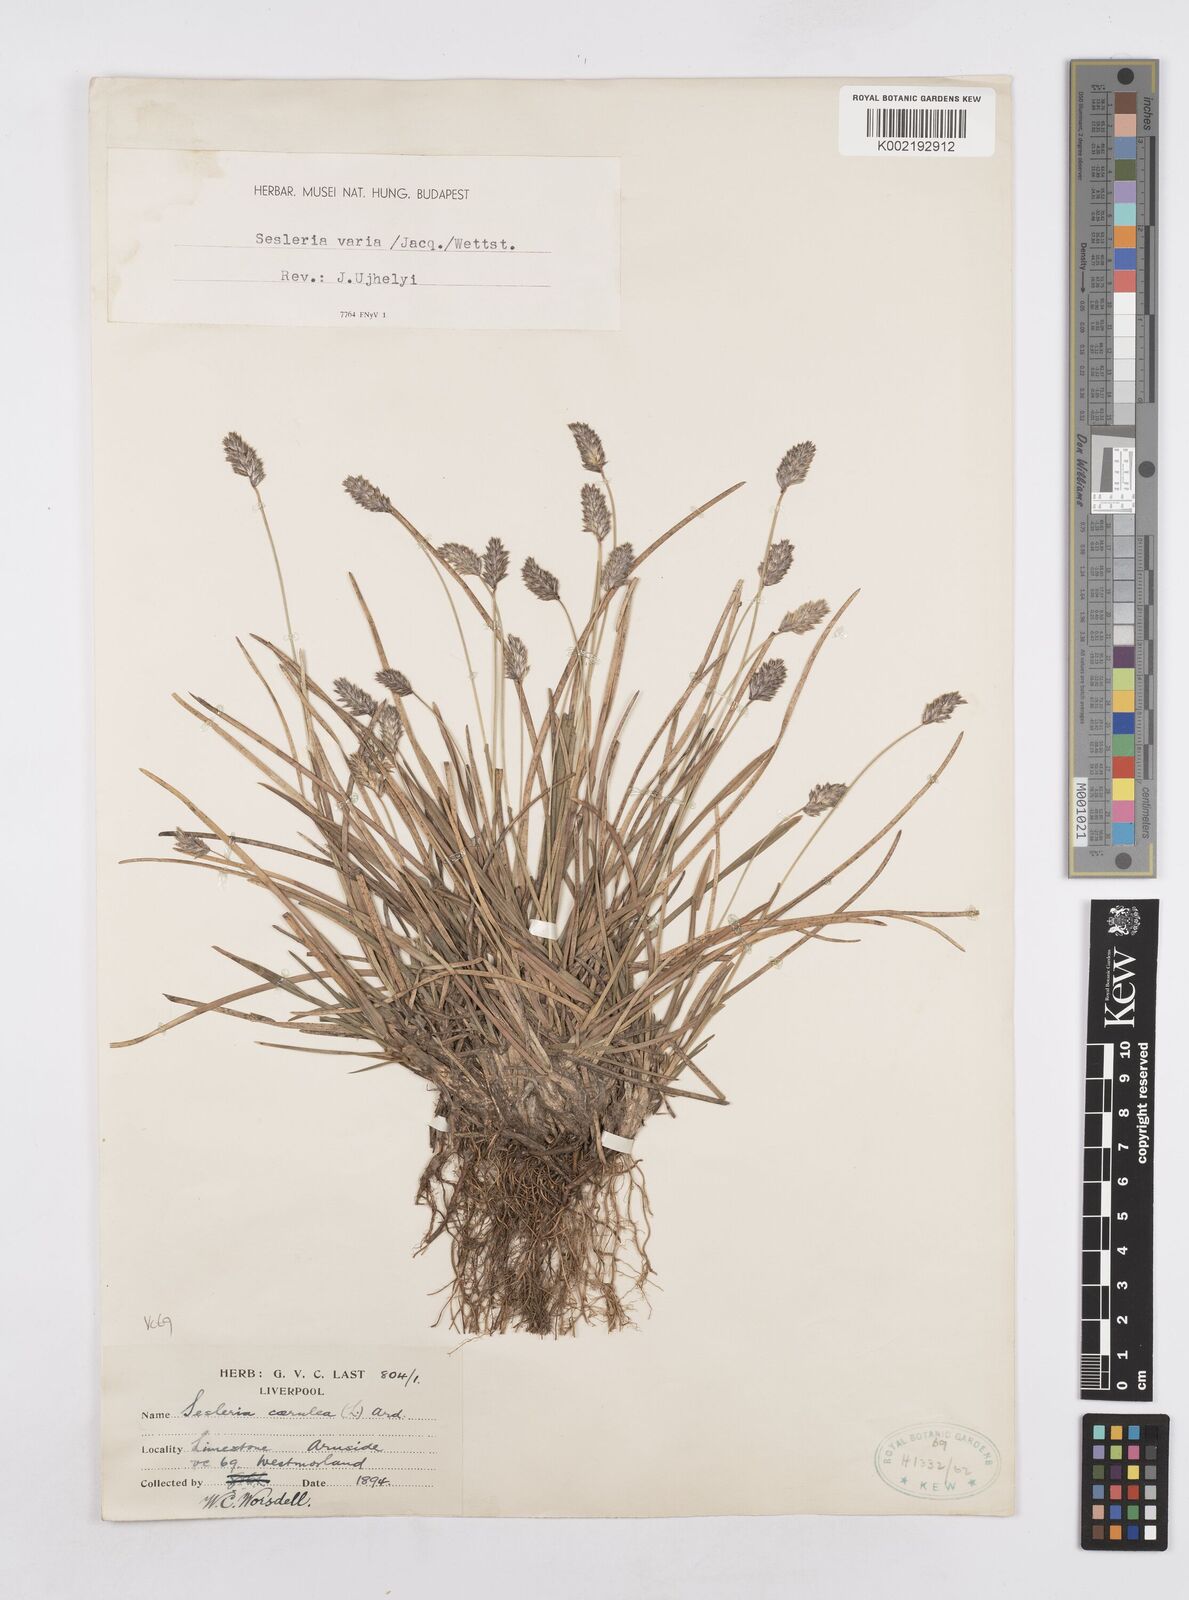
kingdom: Plantae
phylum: Tracheophyta
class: Liliopsida
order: Poales
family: Poaceae
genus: Sesleria
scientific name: Sesleria caerulea
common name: Blue moor-grass
